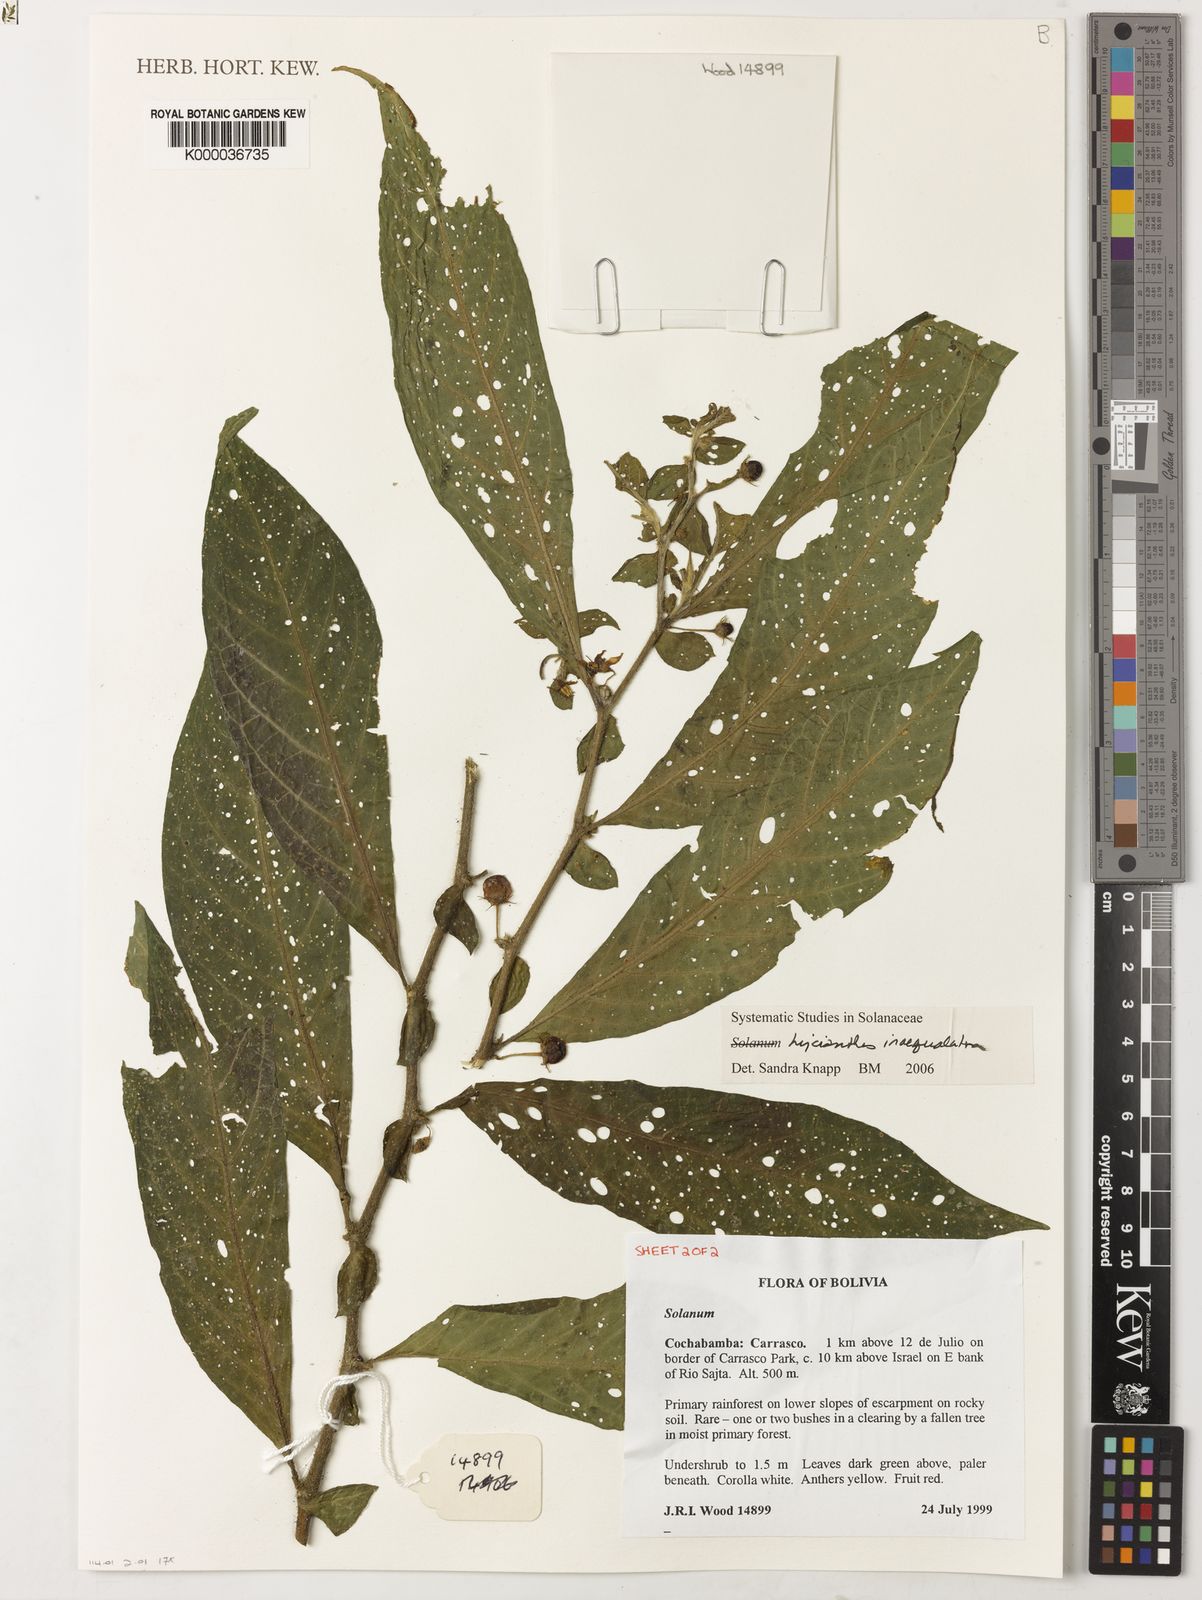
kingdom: Plantae
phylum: Tracheophyta
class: Magnoliopsida
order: Solanales
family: Solanaceae
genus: Lycianthes
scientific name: Lycianthes inaequilatera
